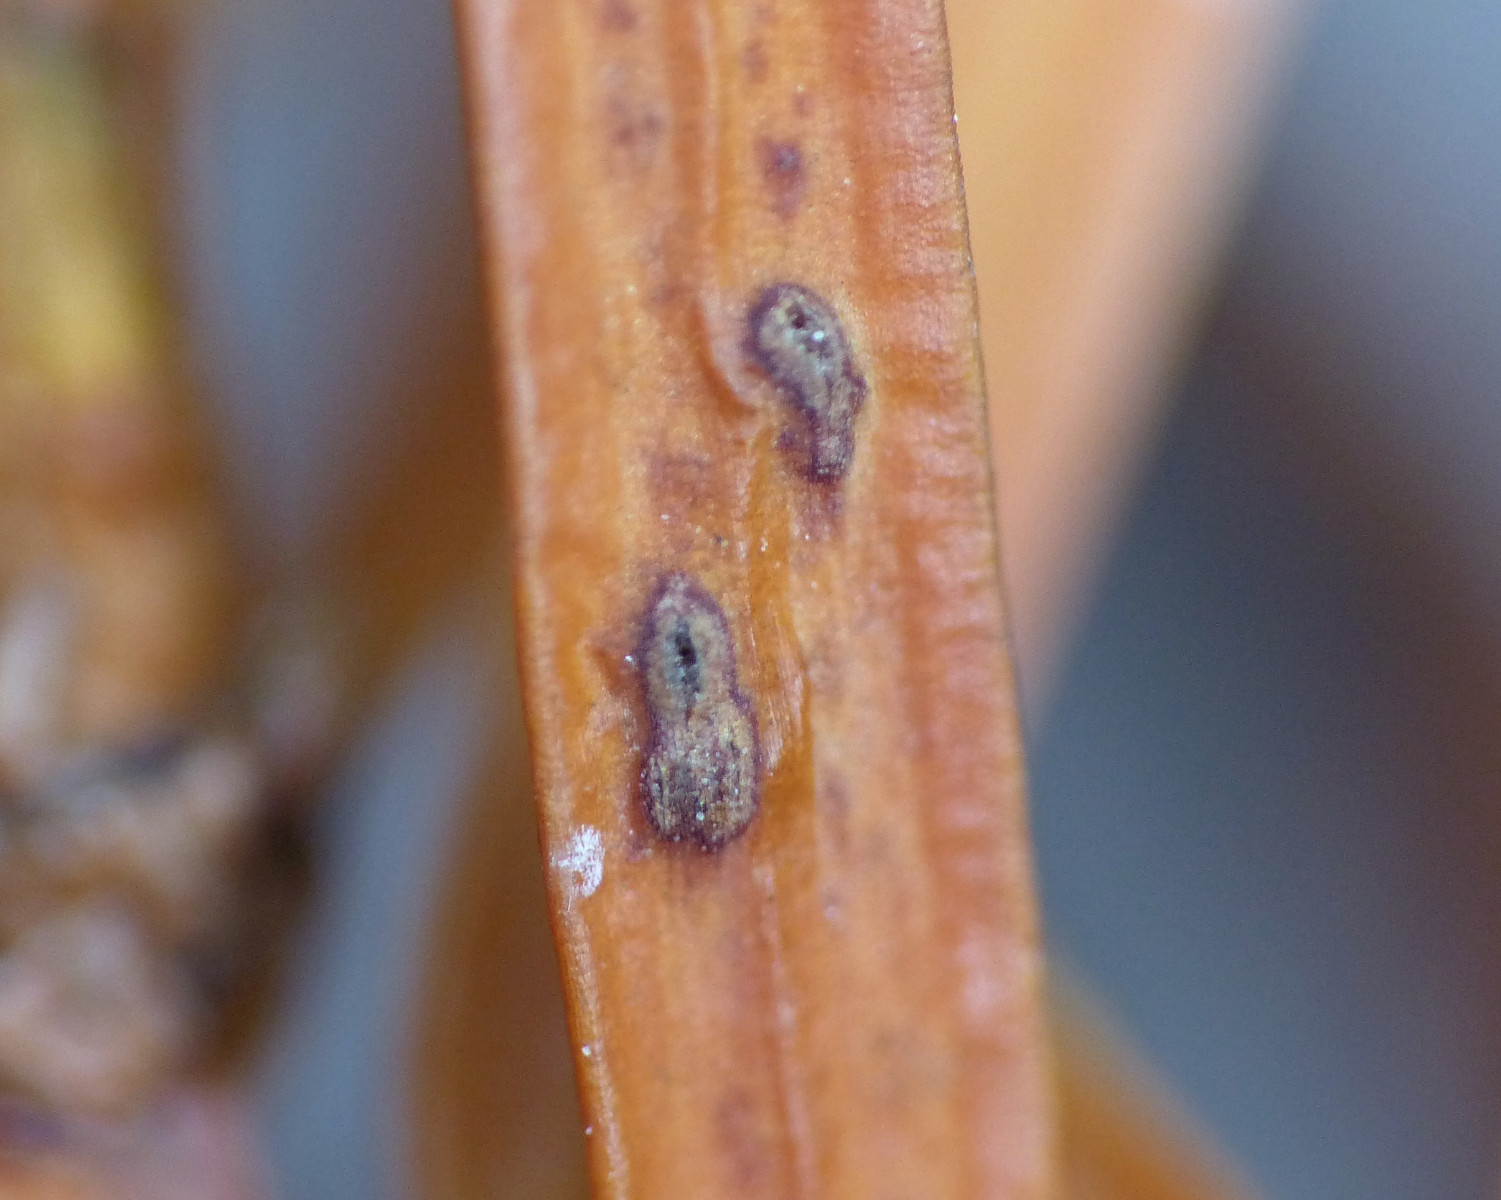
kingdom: Fungi
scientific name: Fungi
